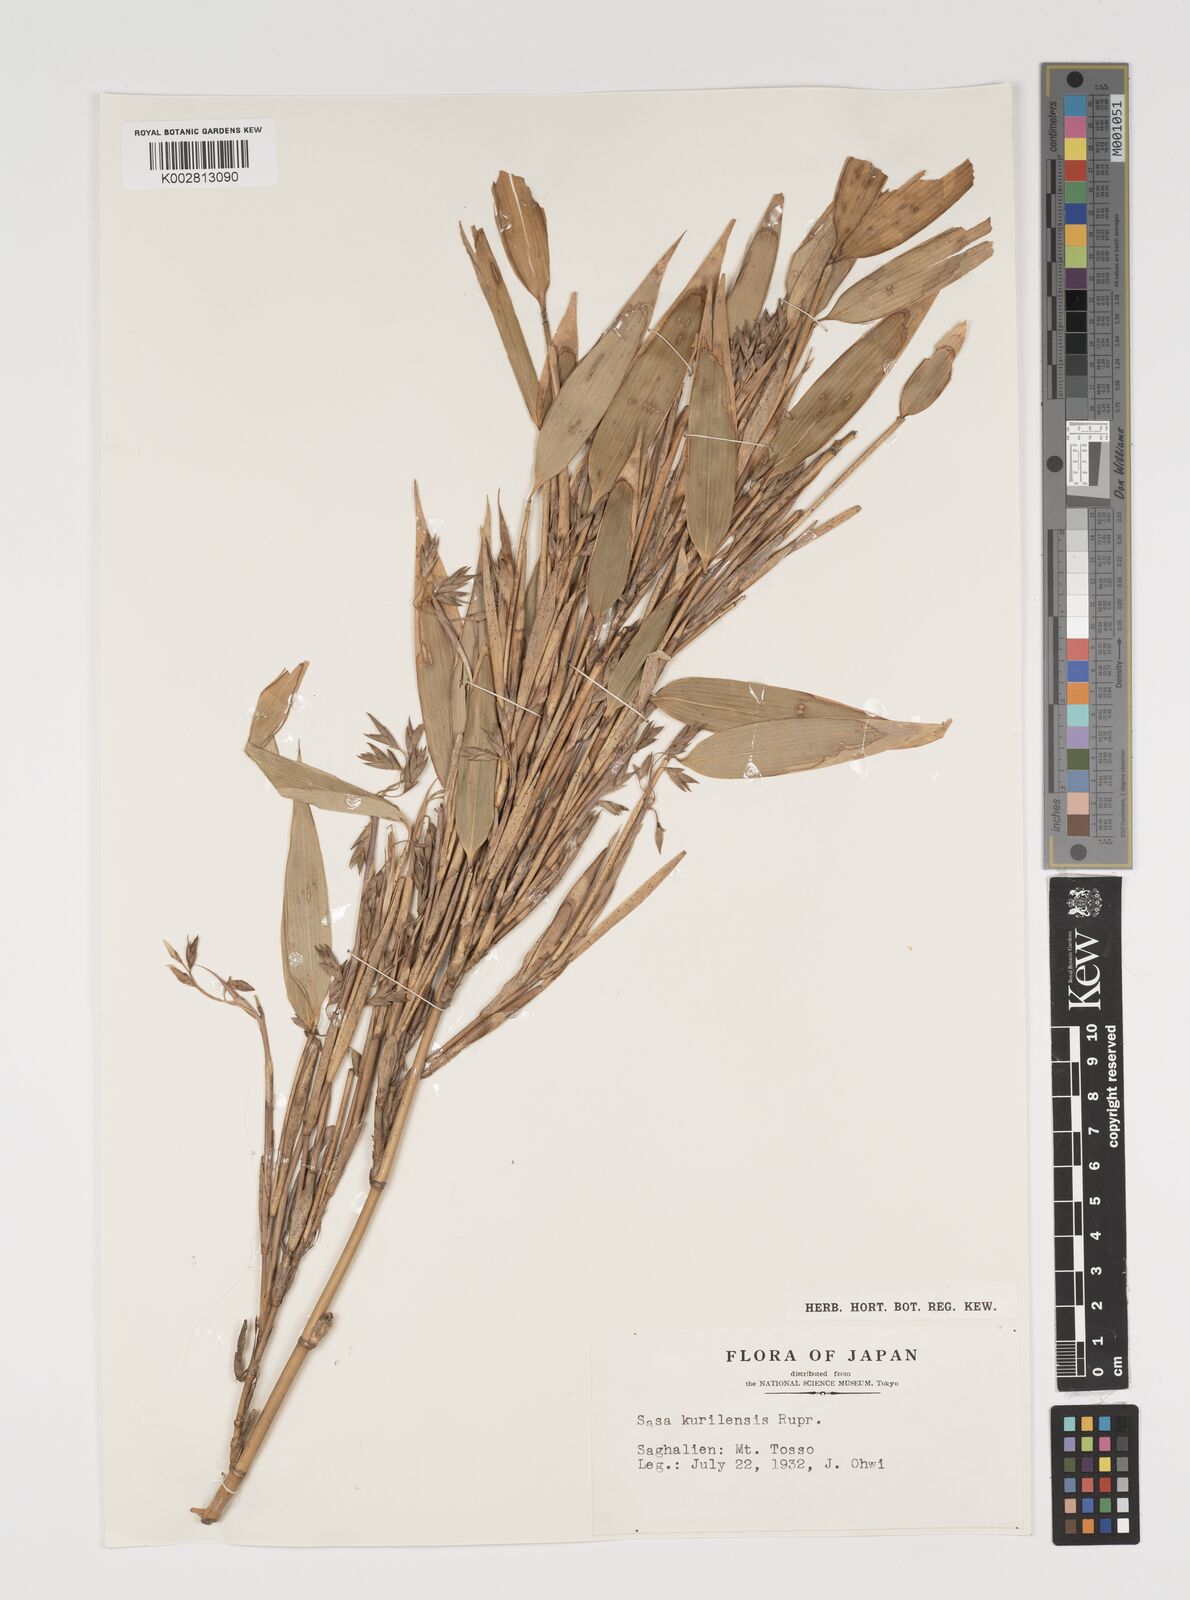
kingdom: Plantae
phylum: Tracheophyta
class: Liliopsida
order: Poales
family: Poaceae
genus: Sasa
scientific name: Sasa kurilensis
